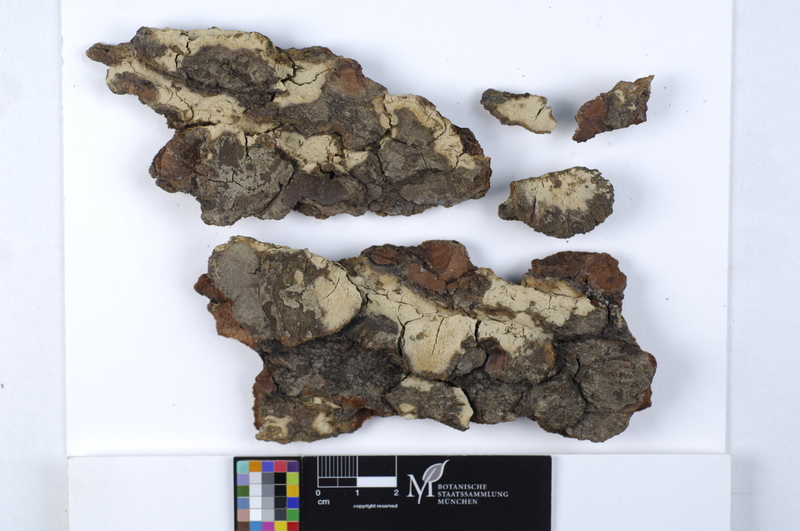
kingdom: Fungi
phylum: Basidiomycota
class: Agaricomycetes
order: Agaricales
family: Pterulaceae
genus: Cerocorticium
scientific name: Cerocorticium sulfureoisabellinum
